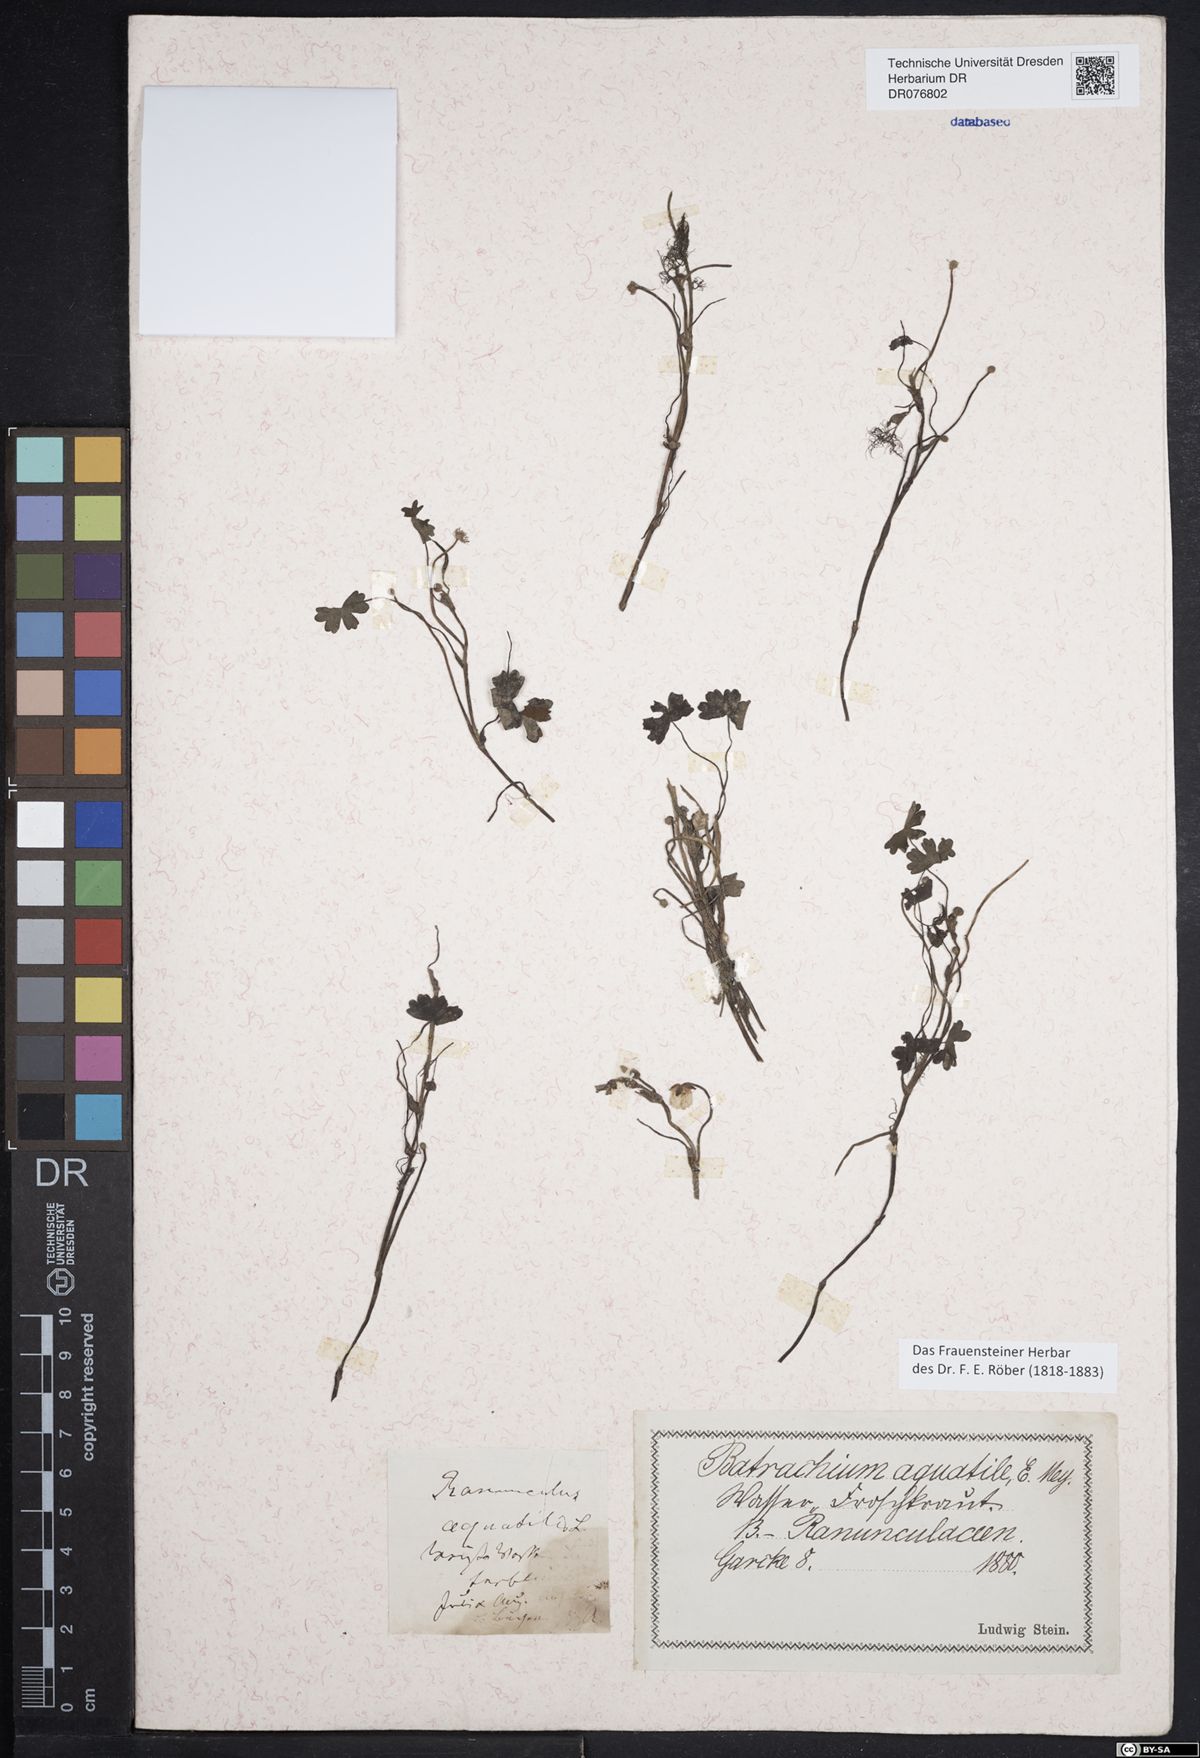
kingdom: Plantae
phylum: Tracheophyta
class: Magnoliopsida
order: Ranunculales
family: Ranunculaceae
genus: Ranunculus
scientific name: Ranunculus aquatilis
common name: Common water-crowfoot
